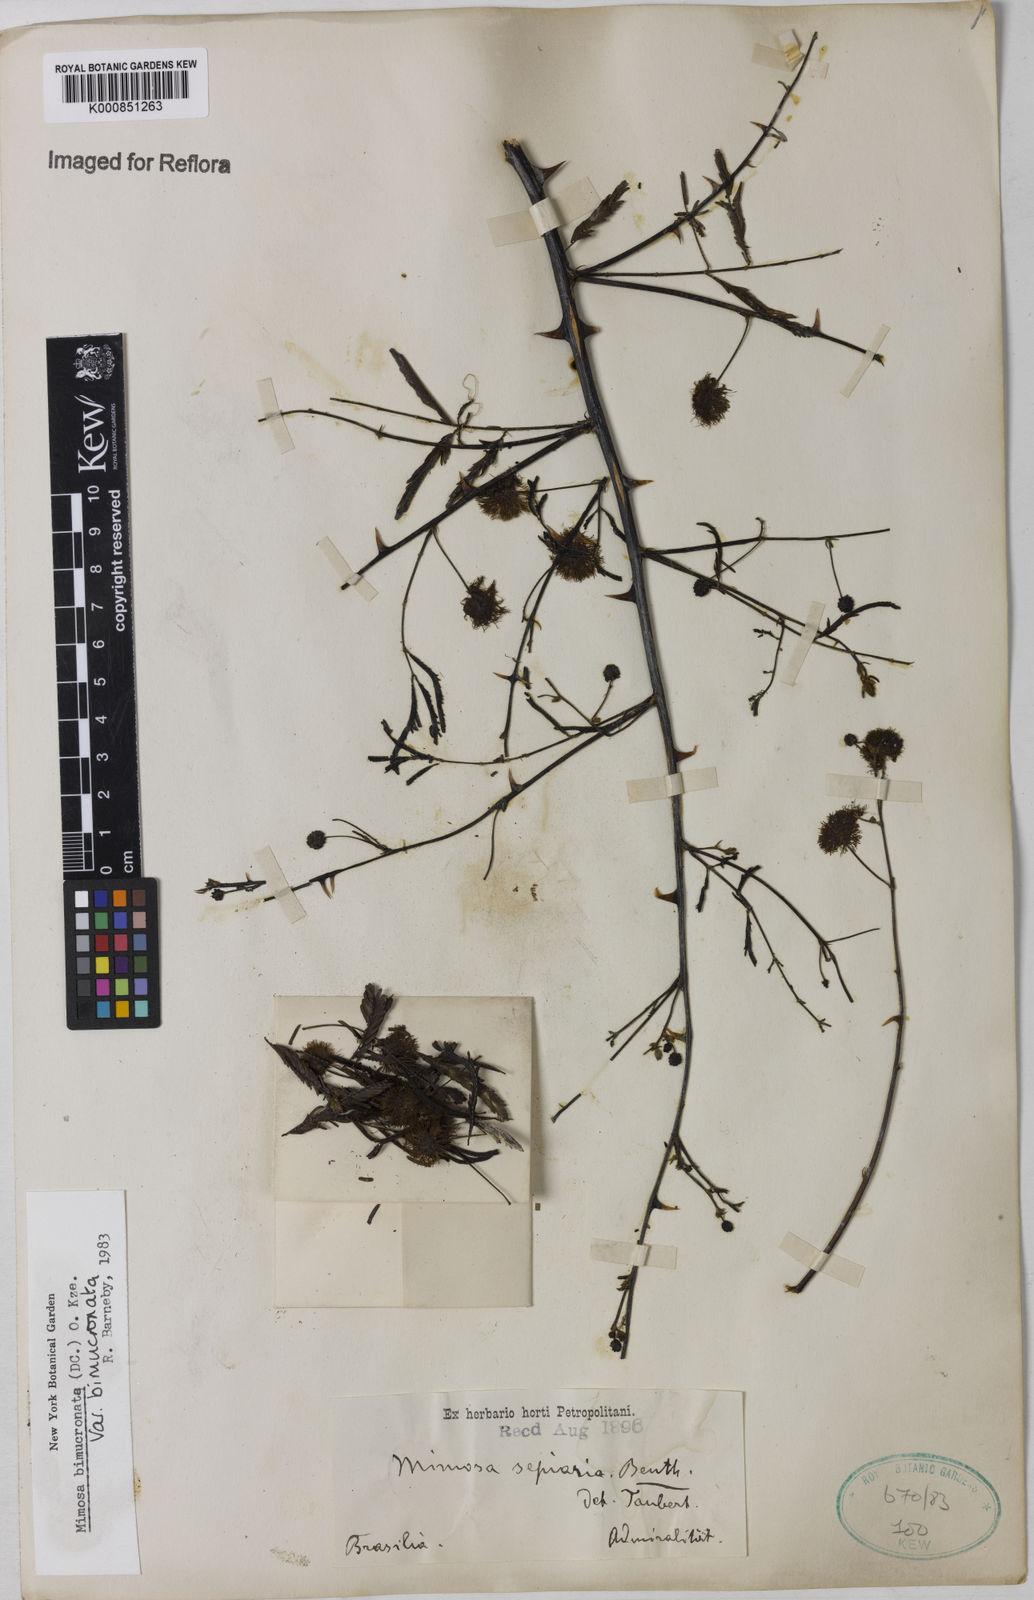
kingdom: Plantae
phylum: Tracheophyta
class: Magnoliopsida
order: Fabales
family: Fabaceae
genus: Mimosa
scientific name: Mimosa bimucronata
